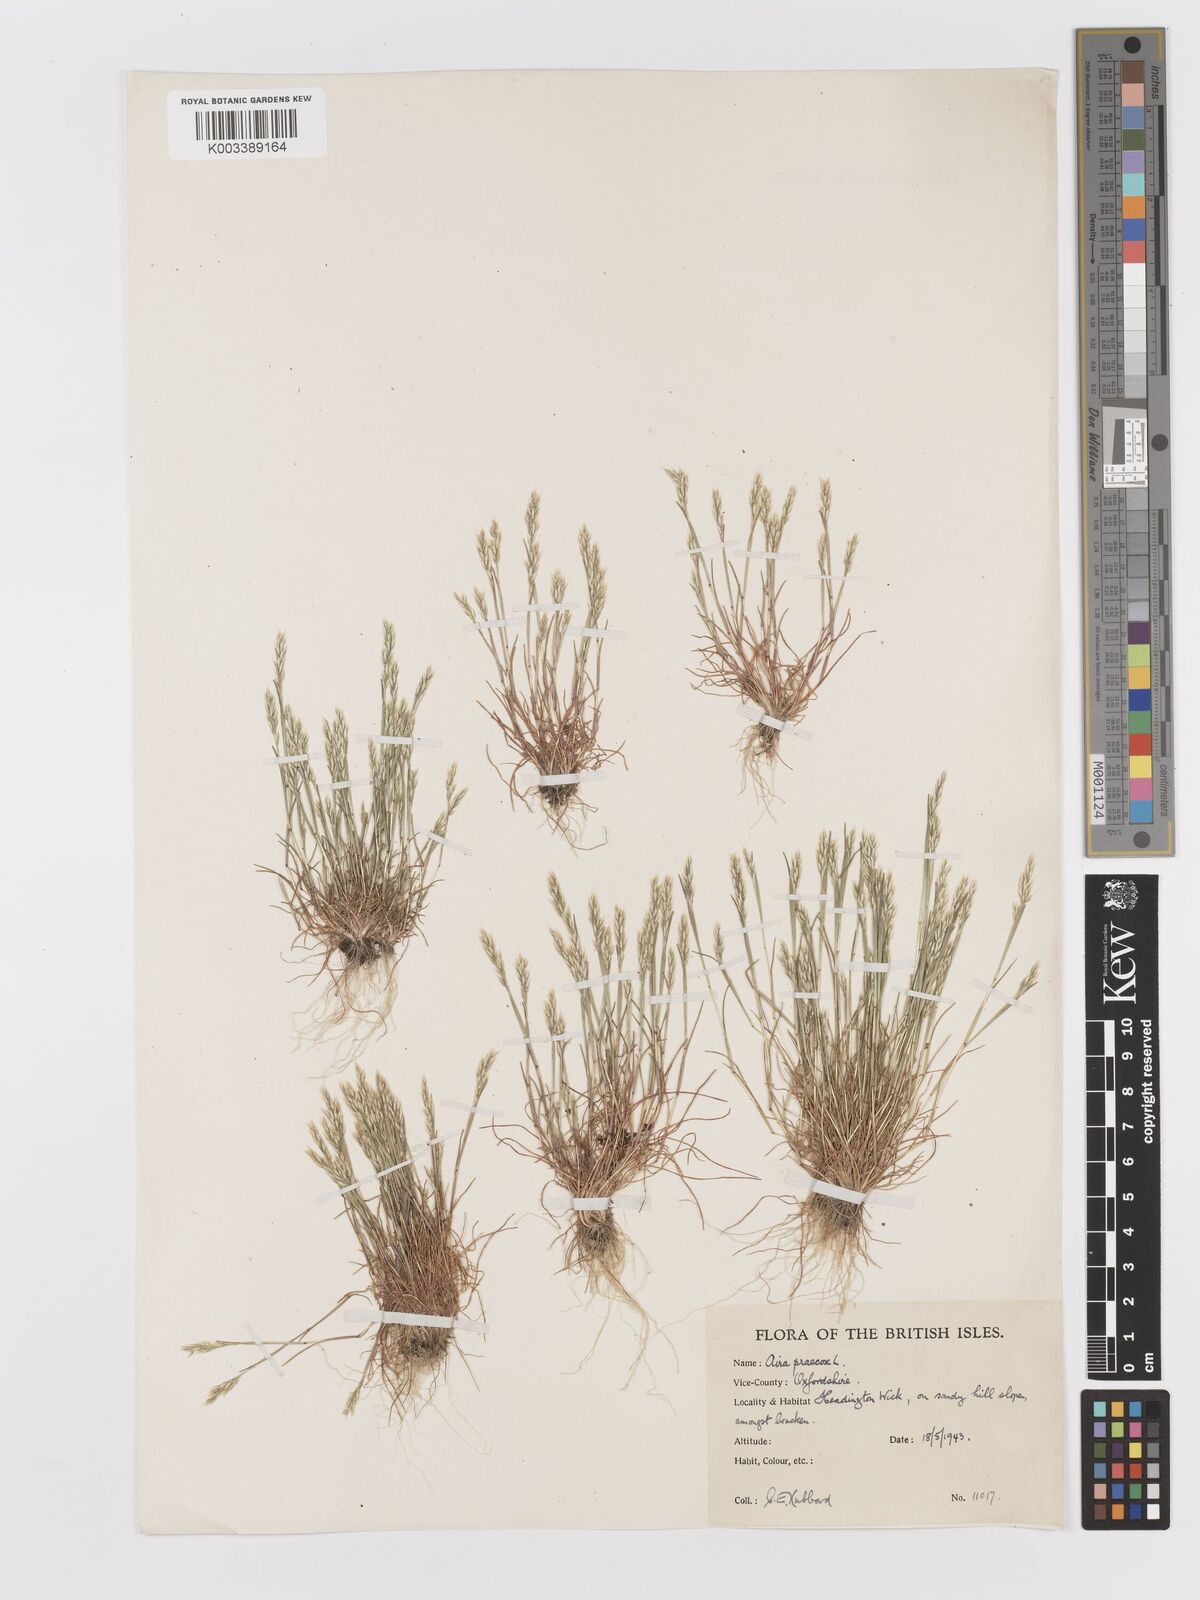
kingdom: Plantae
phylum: Tracheophyta
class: Liliopsida
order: Poales
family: Poaceae
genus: Aira
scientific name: Aira praecox
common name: Early hair-grass
